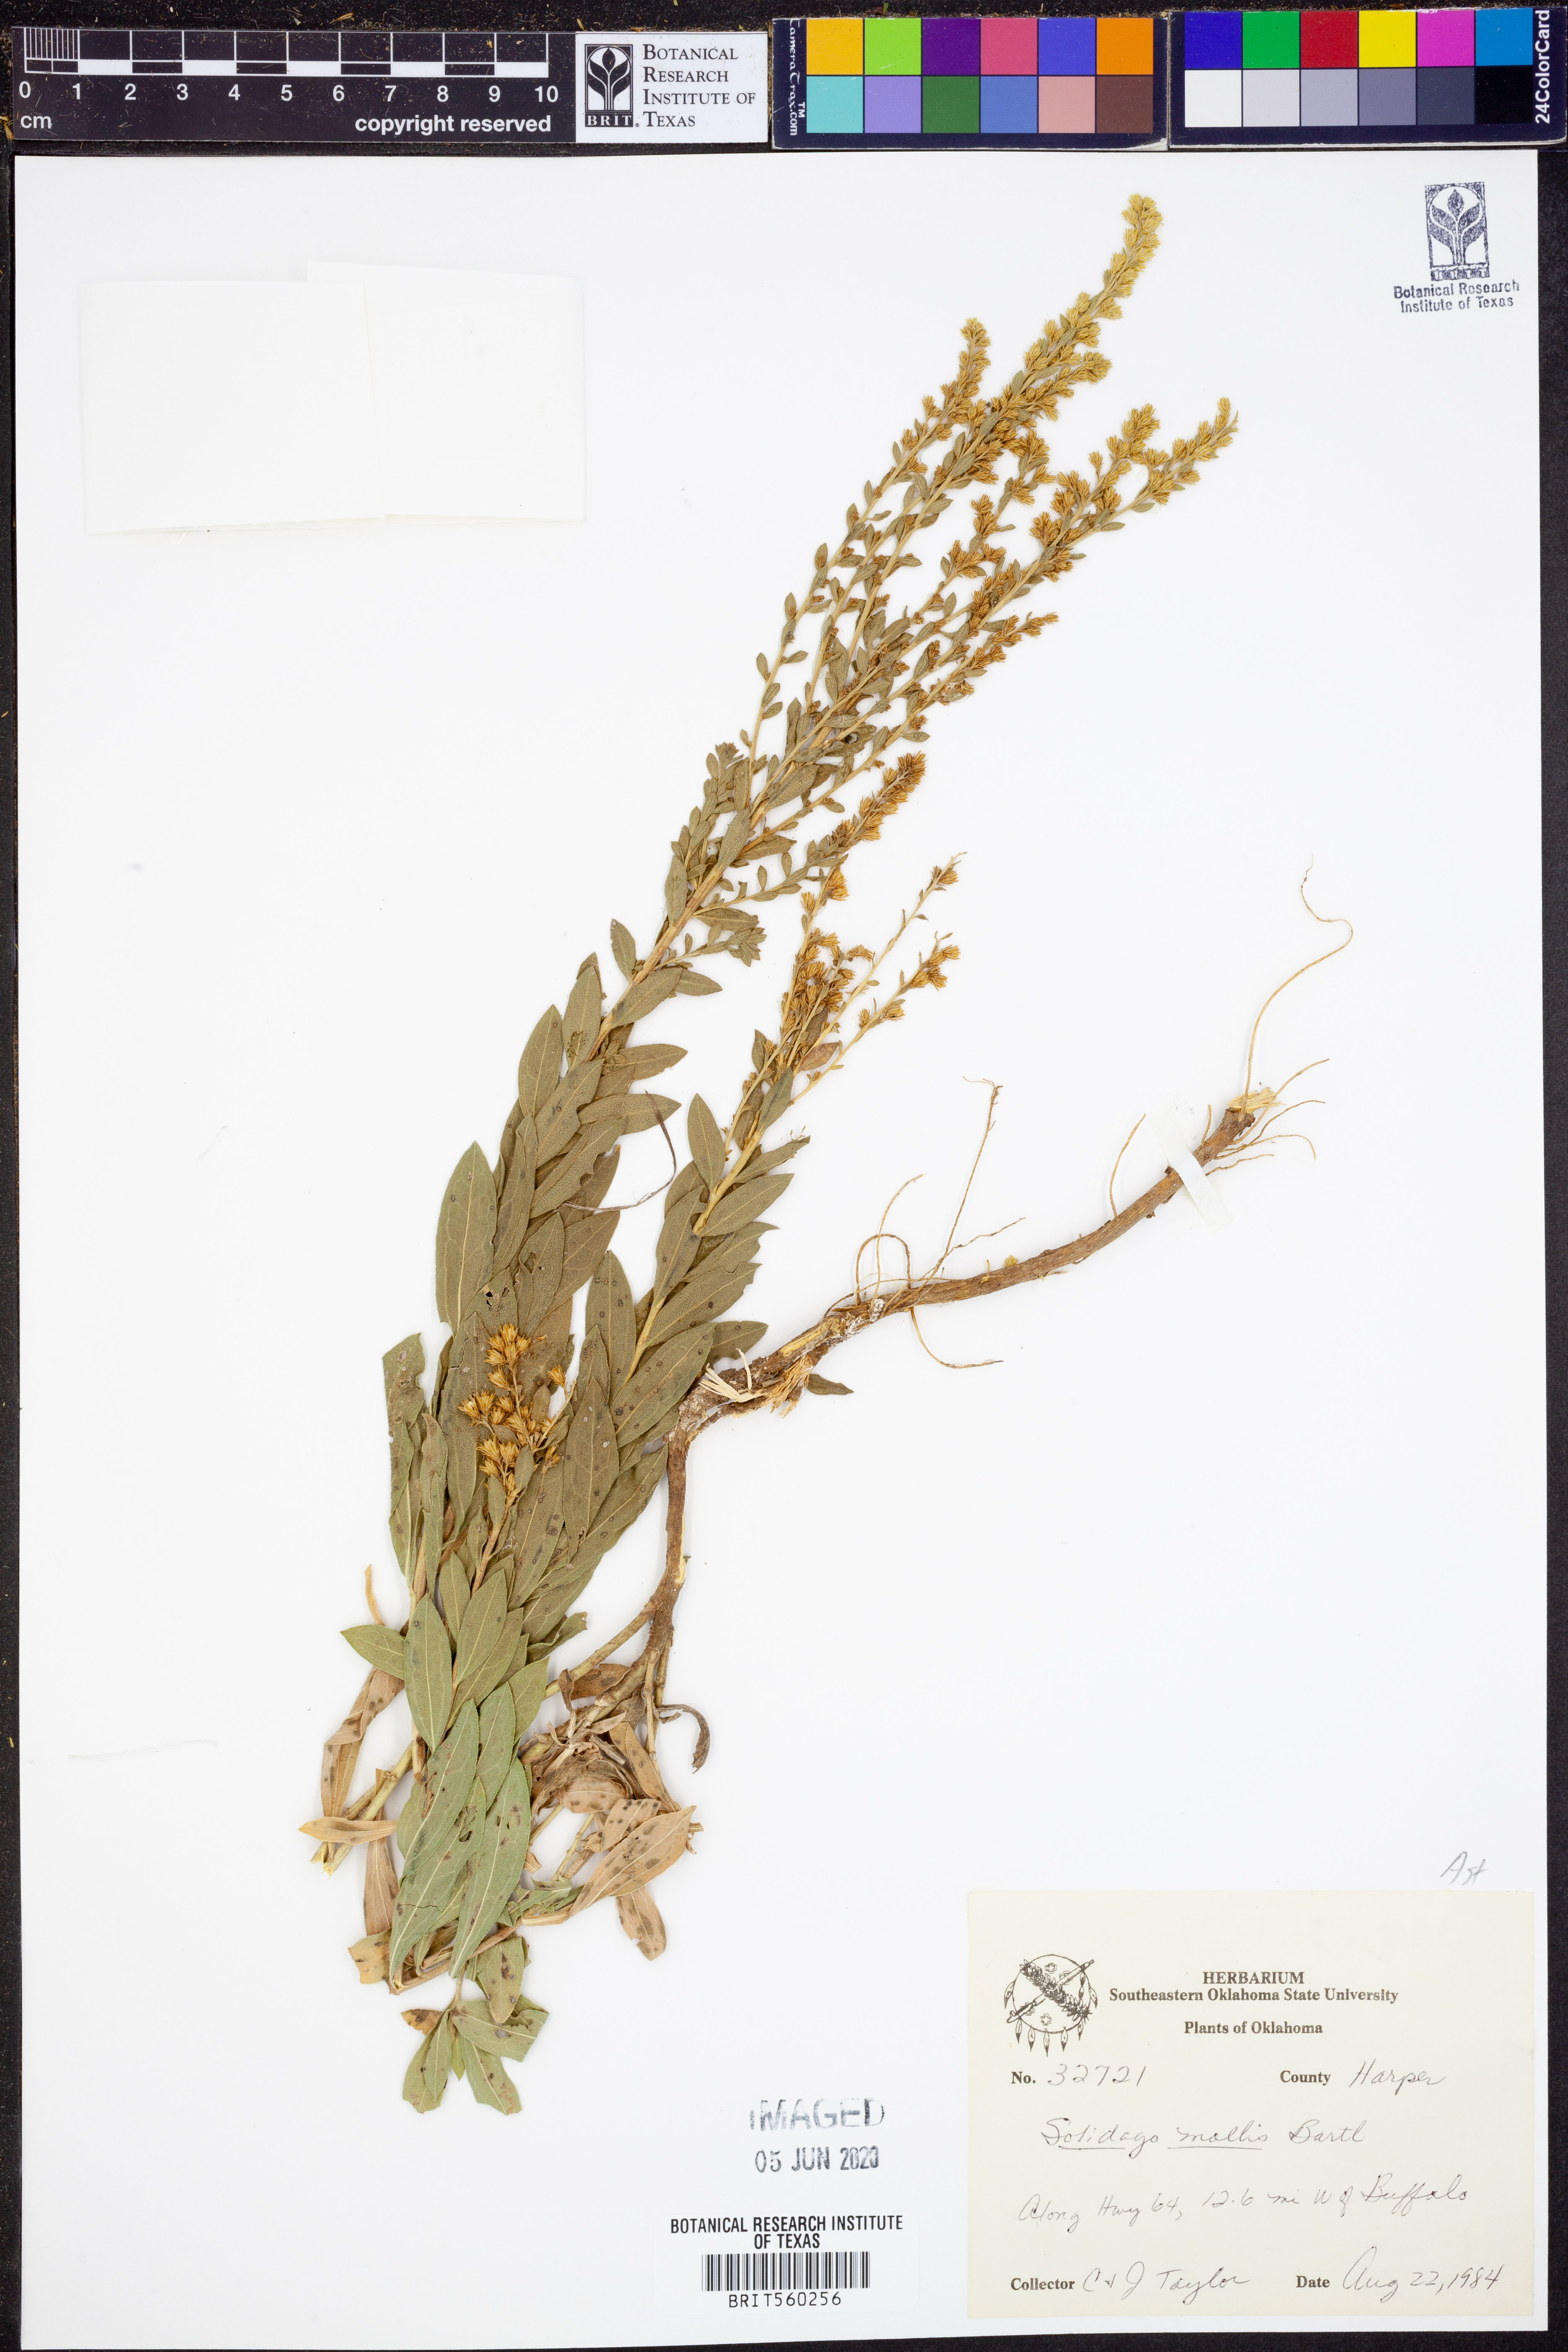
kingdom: Plantae
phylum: Tracheophyta
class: Magnoliopsida
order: Asterales
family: Asteraceae
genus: Solidago
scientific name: Solidago mollis
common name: Ashly goldenrod
